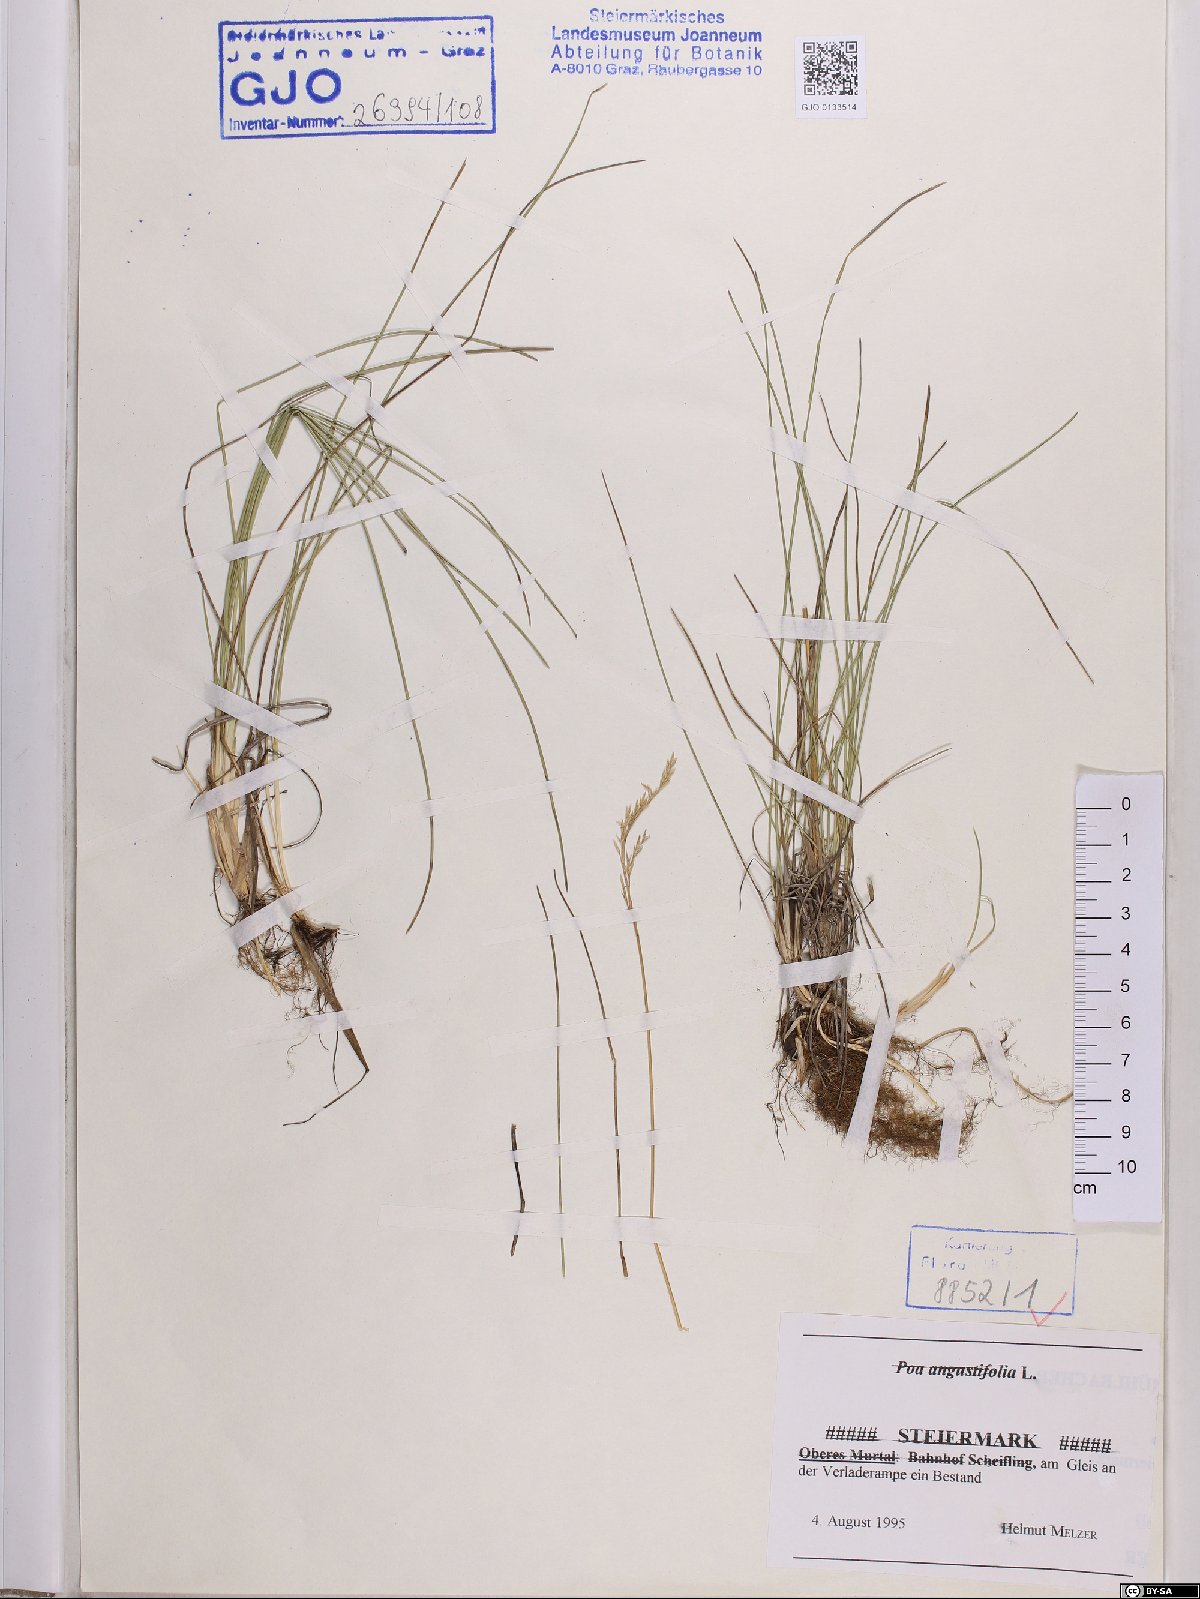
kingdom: Plantae
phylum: Tracheophyta
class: Liliopsida
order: Poales
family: Poaceae
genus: Poa
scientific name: Poa angustifolia
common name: Narrow-leaved meadow-grass
